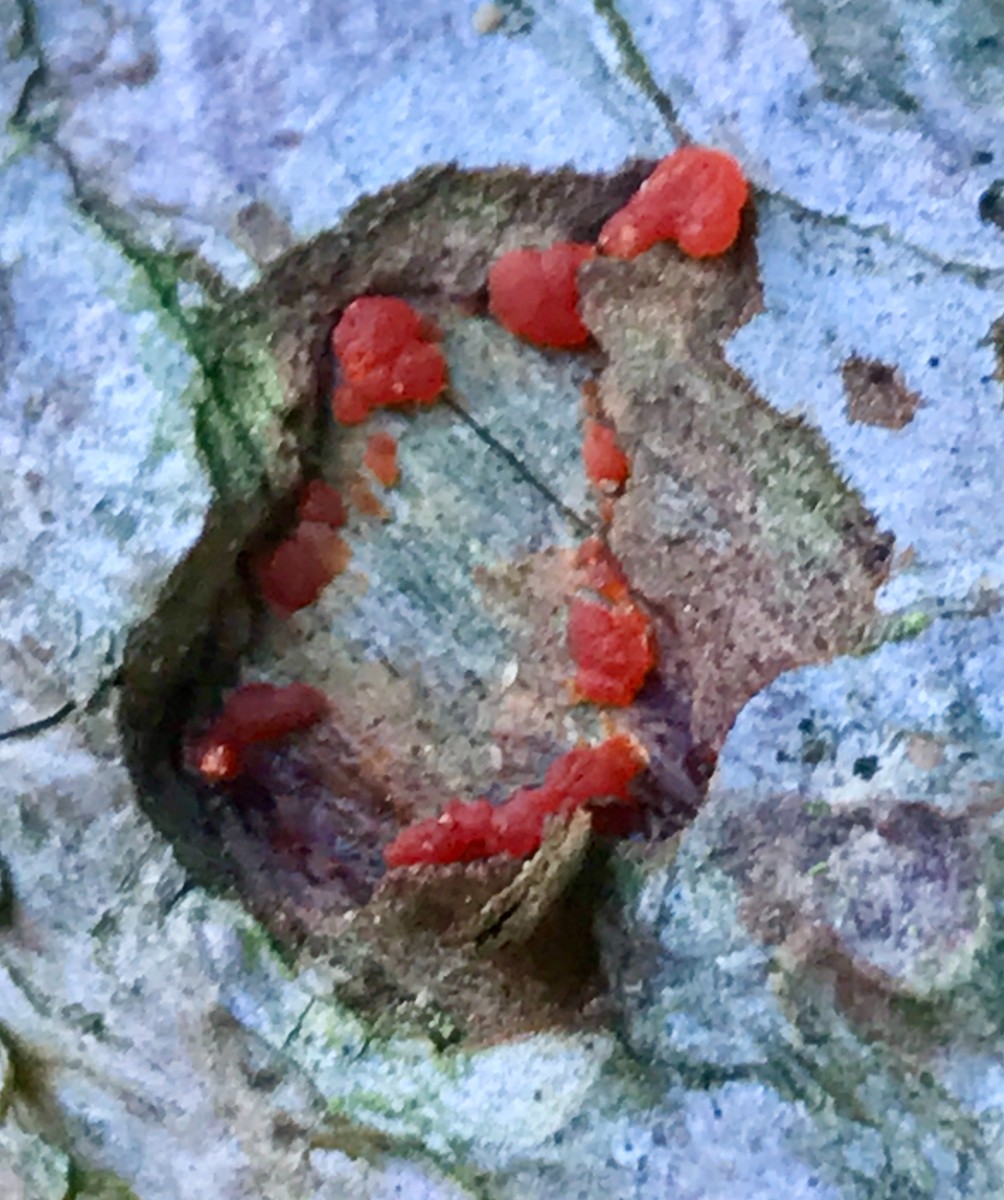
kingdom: Fungi
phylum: Basidiomycota
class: Dacrymycetes
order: Dacrymycetales
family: Dacrymycetaceae
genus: Dacrymyces
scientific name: Dacrymyces stillatus
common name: almindelig tåresvamp
